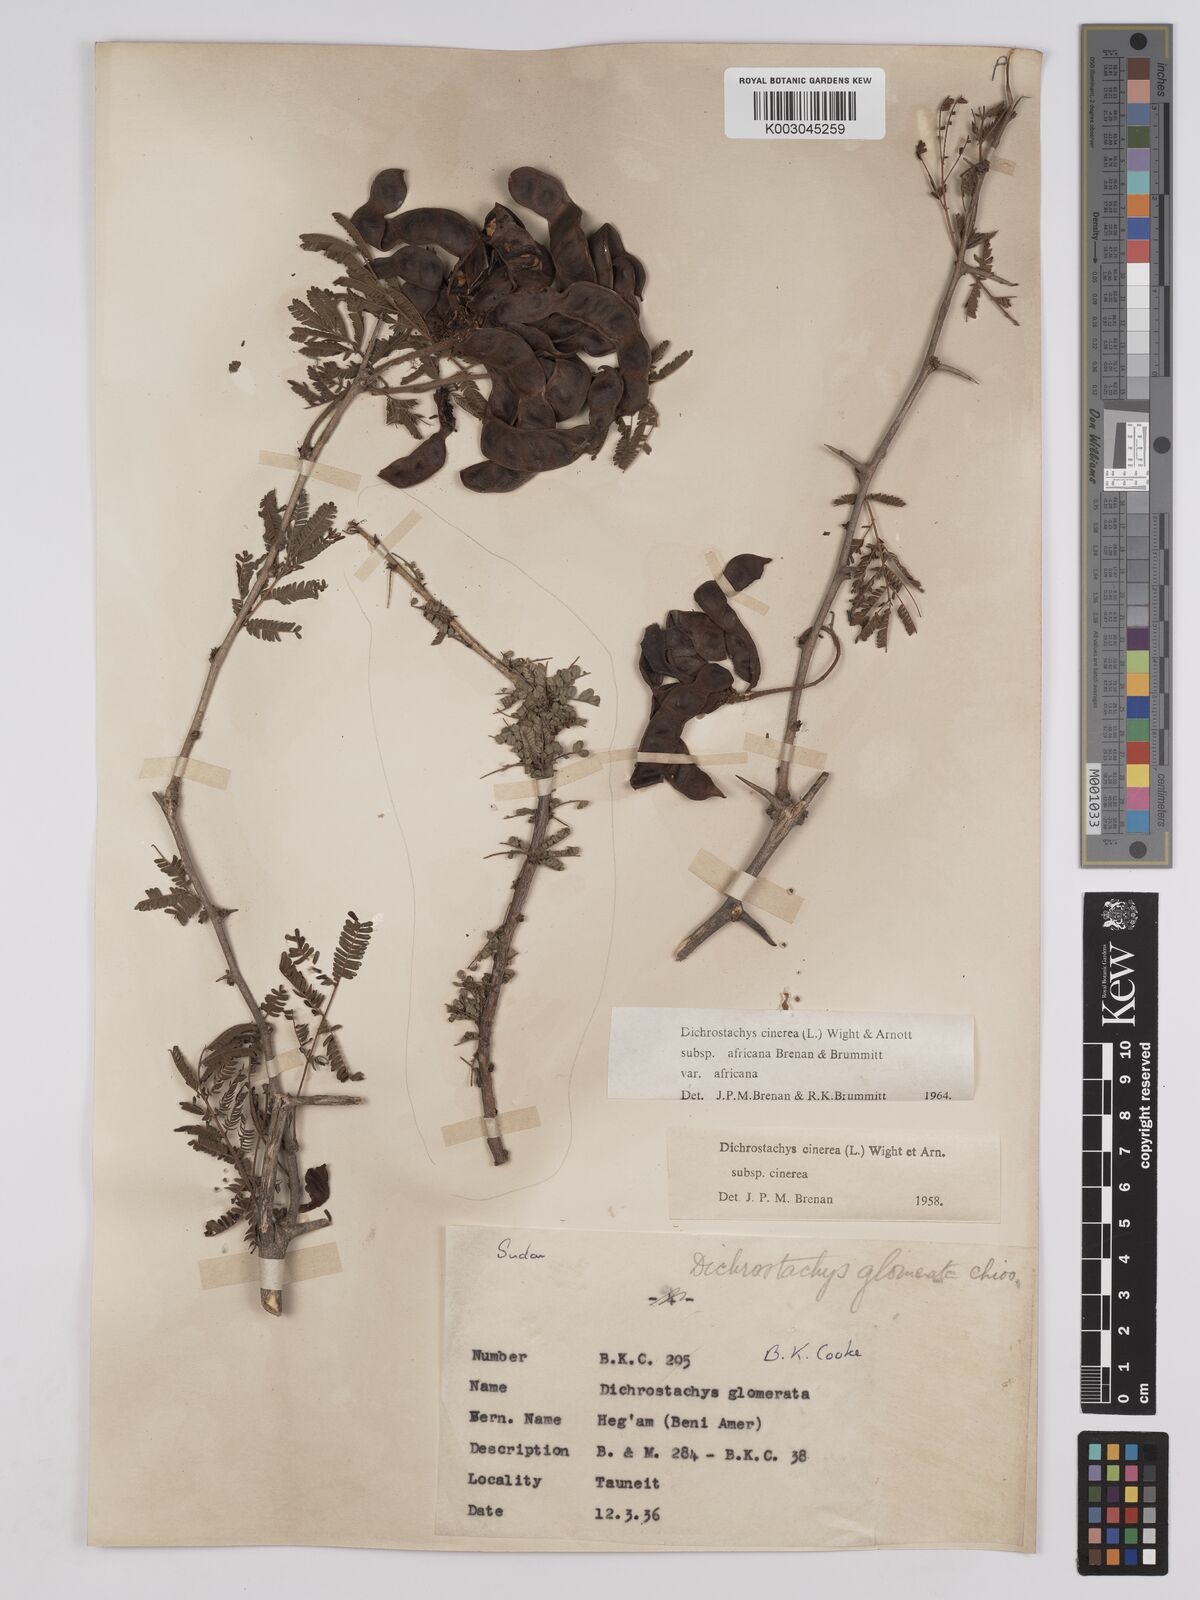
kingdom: Plantae
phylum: Tracheophyta
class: Magnoliopsida
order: Fabales
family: Fabaceae
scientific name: Fabaceae
